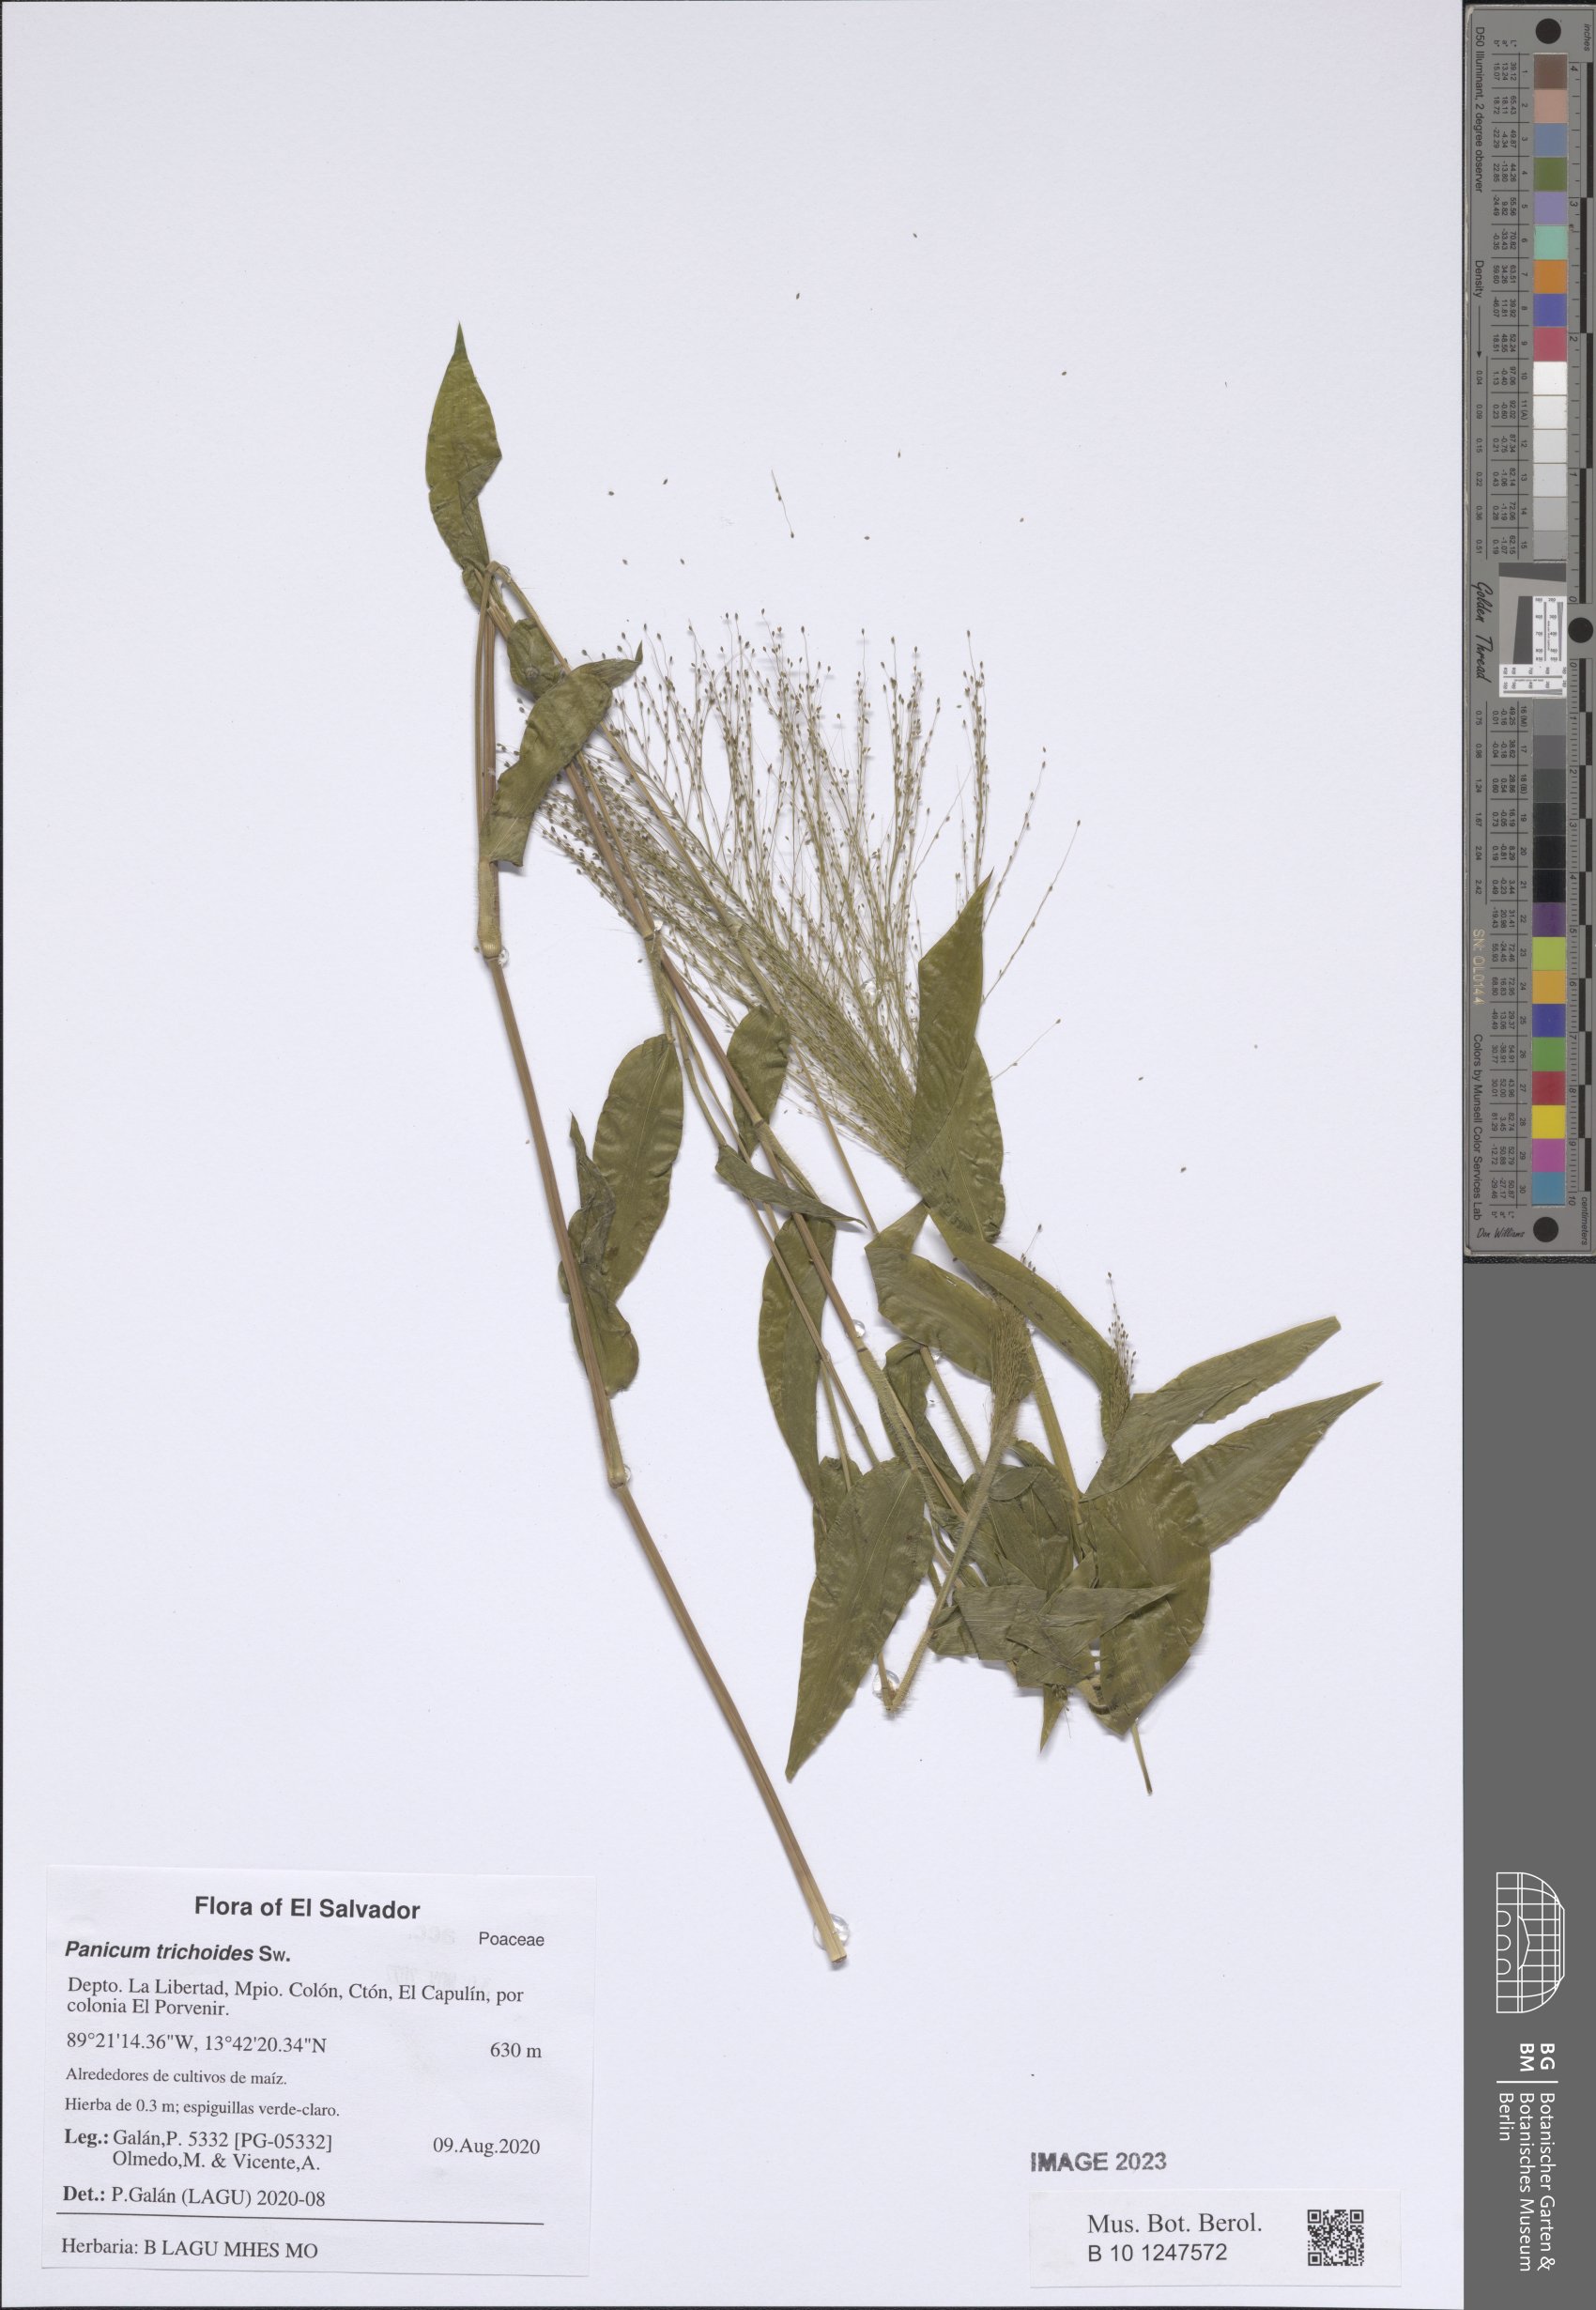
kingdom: Plantae
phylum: Tracheophyta
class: Liliopsida
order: Poales
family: Poaceae
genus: Panicum
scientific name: Panicum trichoides
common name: Tickle grass
